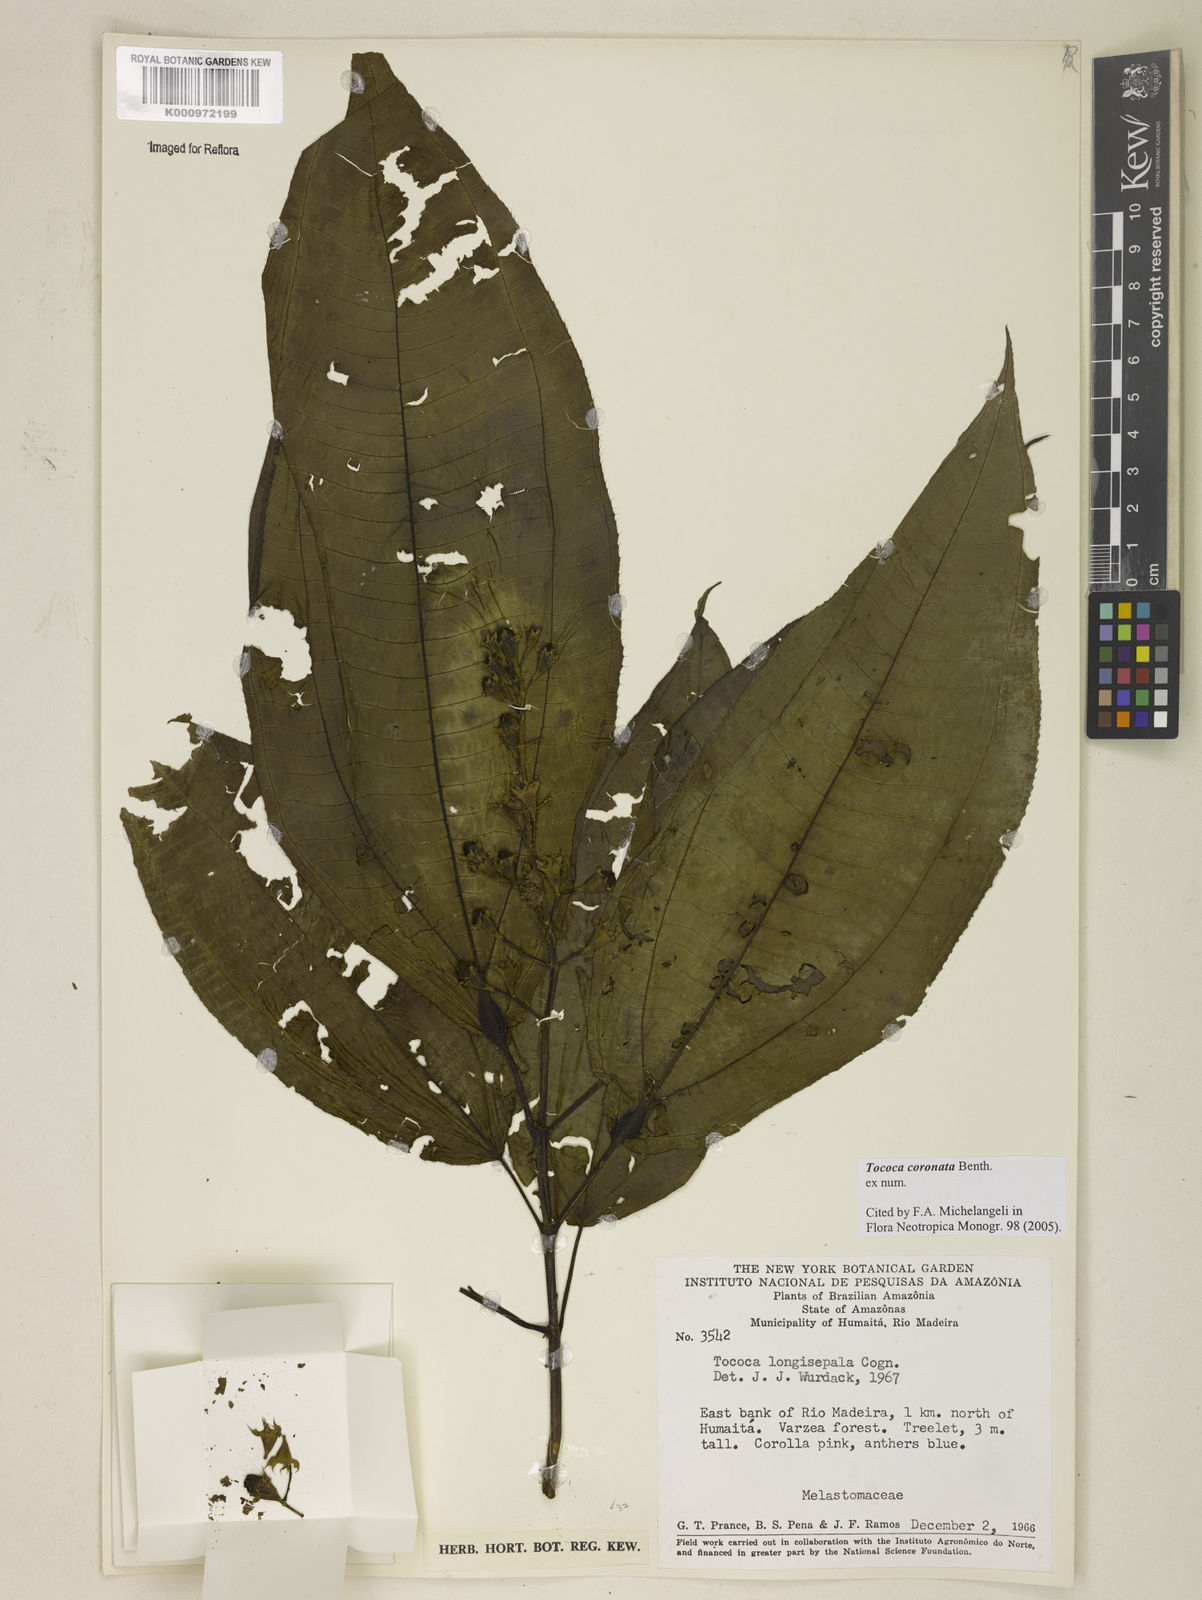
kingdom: Plantae
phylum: Tracheophyta
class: Magnoliopsida
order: Myrtales
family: Melastomataceae
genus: Miconia
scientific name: Miconia tococoronata
